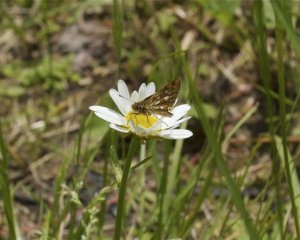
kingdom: Animalia
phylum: Arthropoda
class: Insecta
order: Lepidoptera
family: Hesperiidae
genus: Carterocephalus
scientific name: Carterocephalus palaemon
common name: Chequered Skipper
